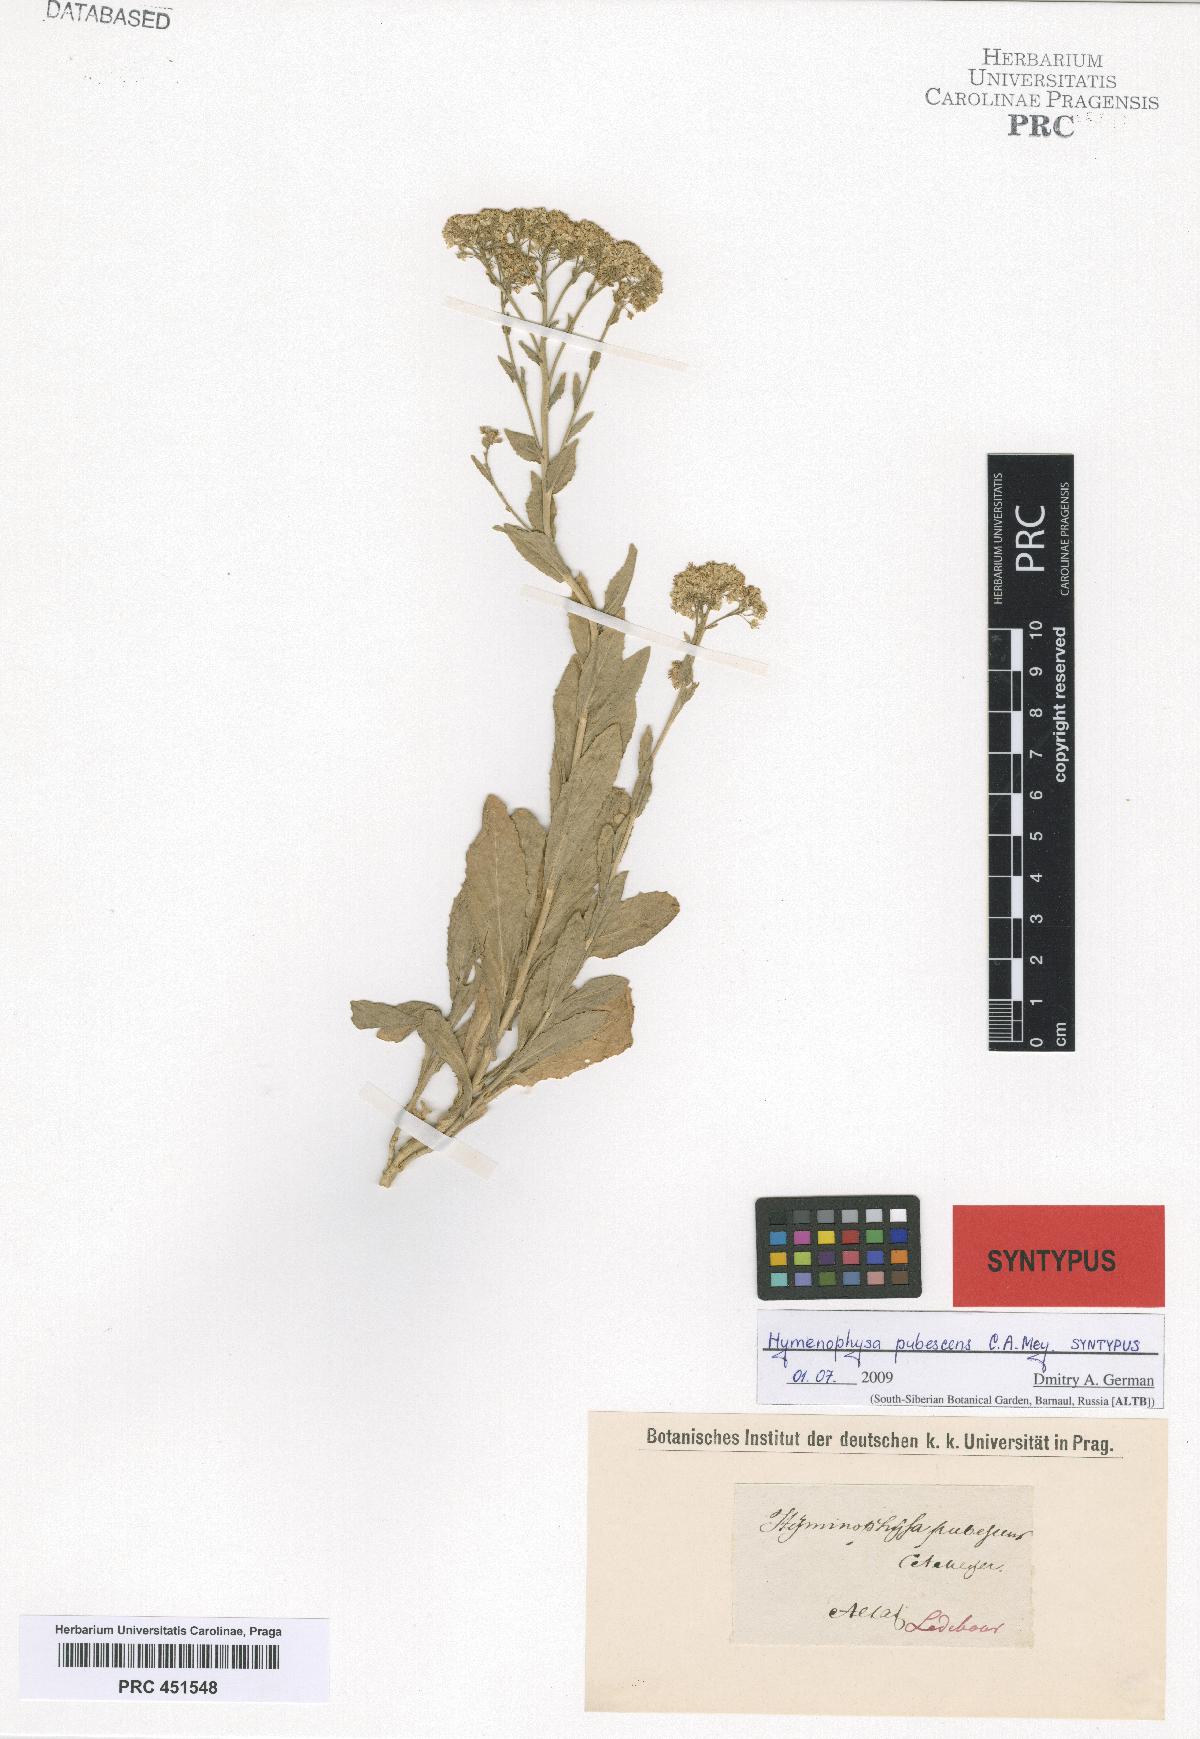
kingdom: Plantae
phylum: Tracheophyta
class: Magnoliopsida
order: Brassicales
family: Brassicaceae
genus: Lepidium
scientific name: Lepidium appelianum
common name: Hairy whitetop
